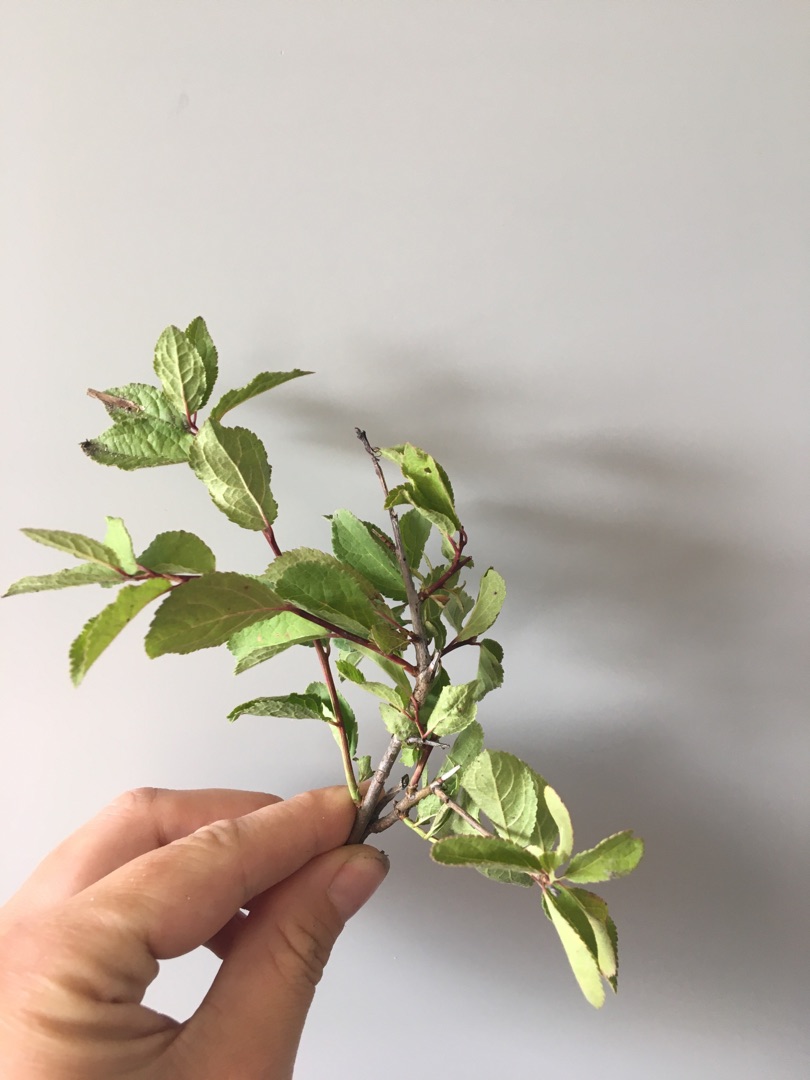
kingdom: Plantae
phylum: Tracheophyta
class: Magnoliopsida
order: Rosales
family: Rosaceae
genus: Prunus
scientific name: Prunus cerasifera
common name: Mirabel
